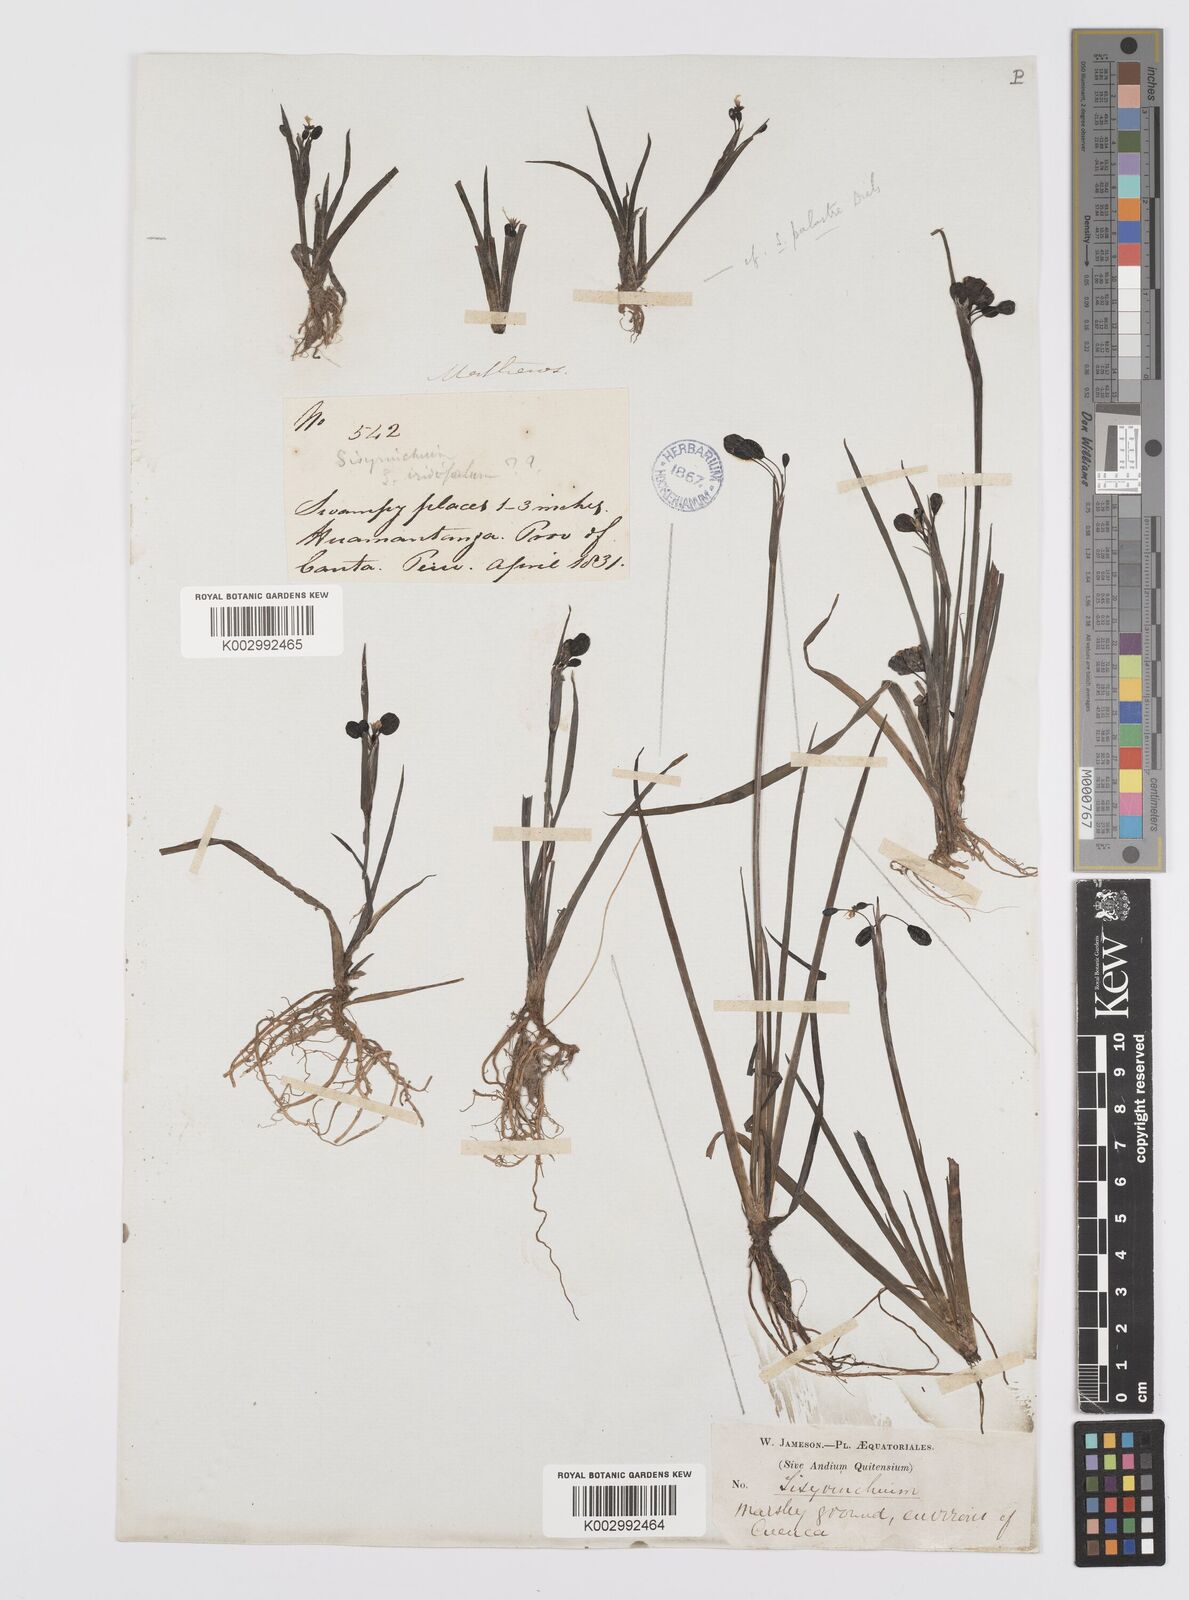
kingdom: Plantae
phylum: Tracheophyta
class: Liliopsida
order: Asparagales
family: Iridaceae
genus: Sisyrinchium
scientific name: Sisyrinchium tinctorium
